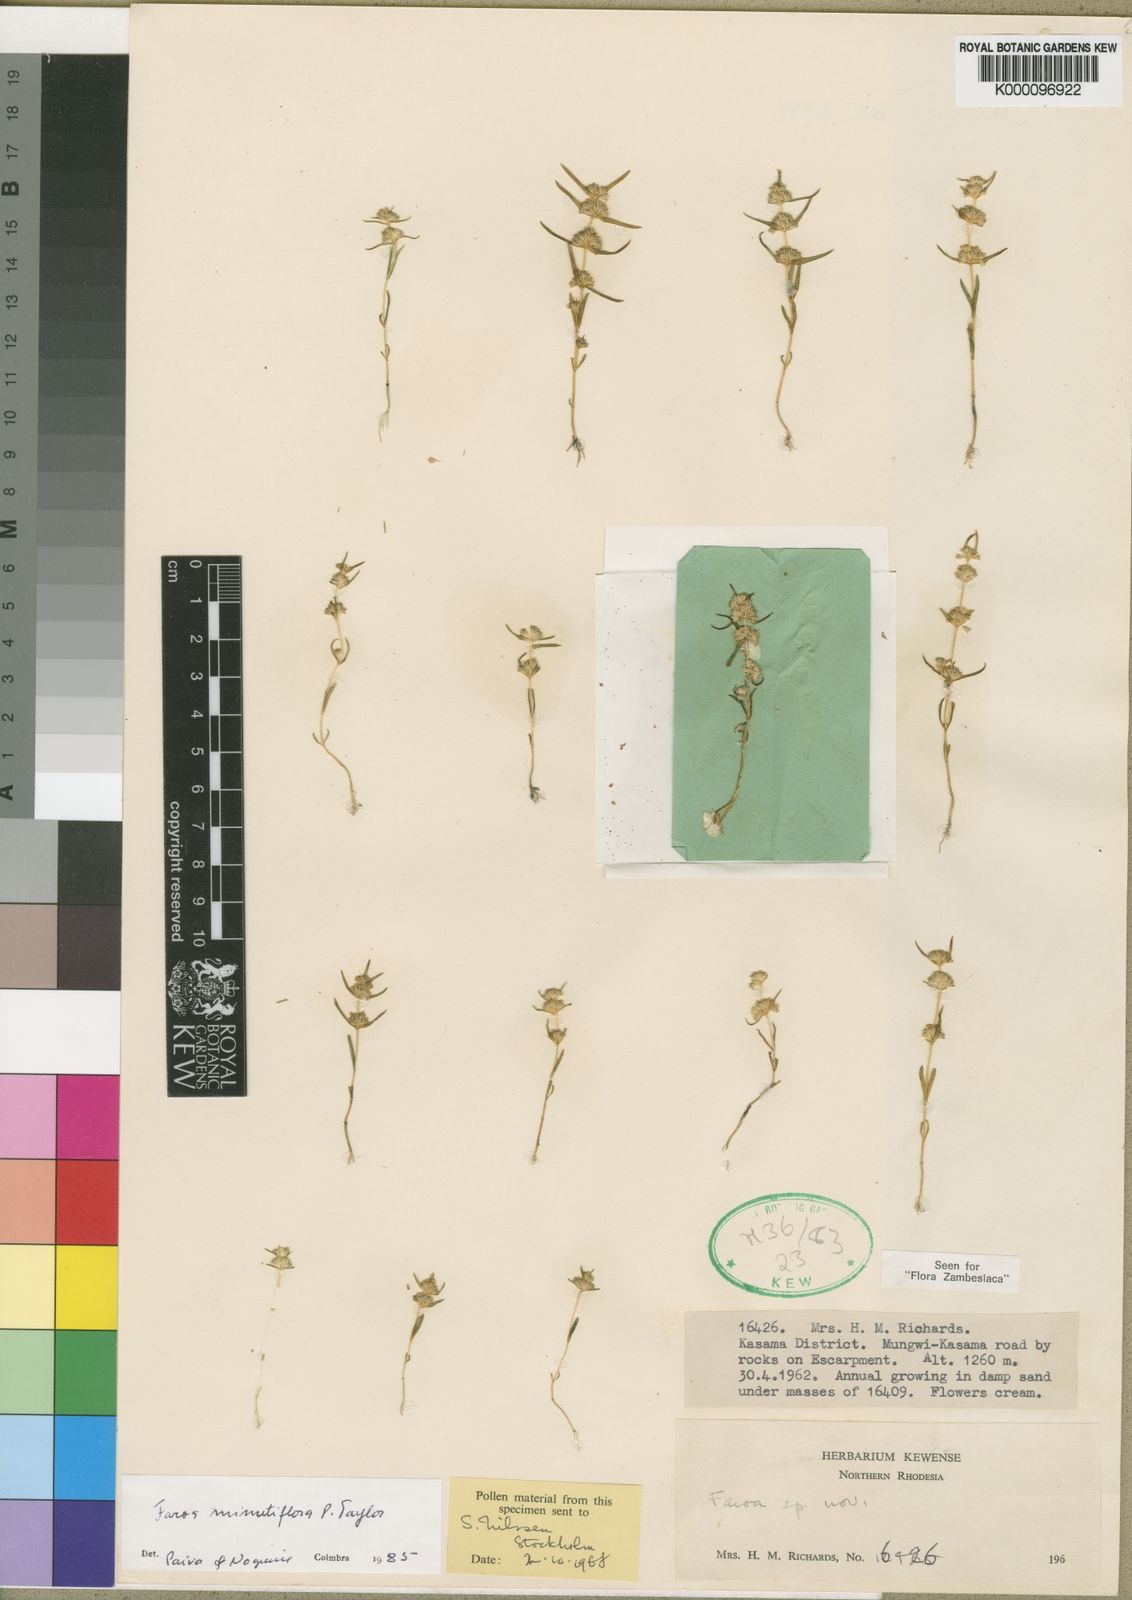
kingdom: Plantae
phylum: Tracheophyta
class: Magnoliopsida
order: Gentianales
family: Gentianaceae
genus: Faroa
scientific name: Faroa minutiflora
